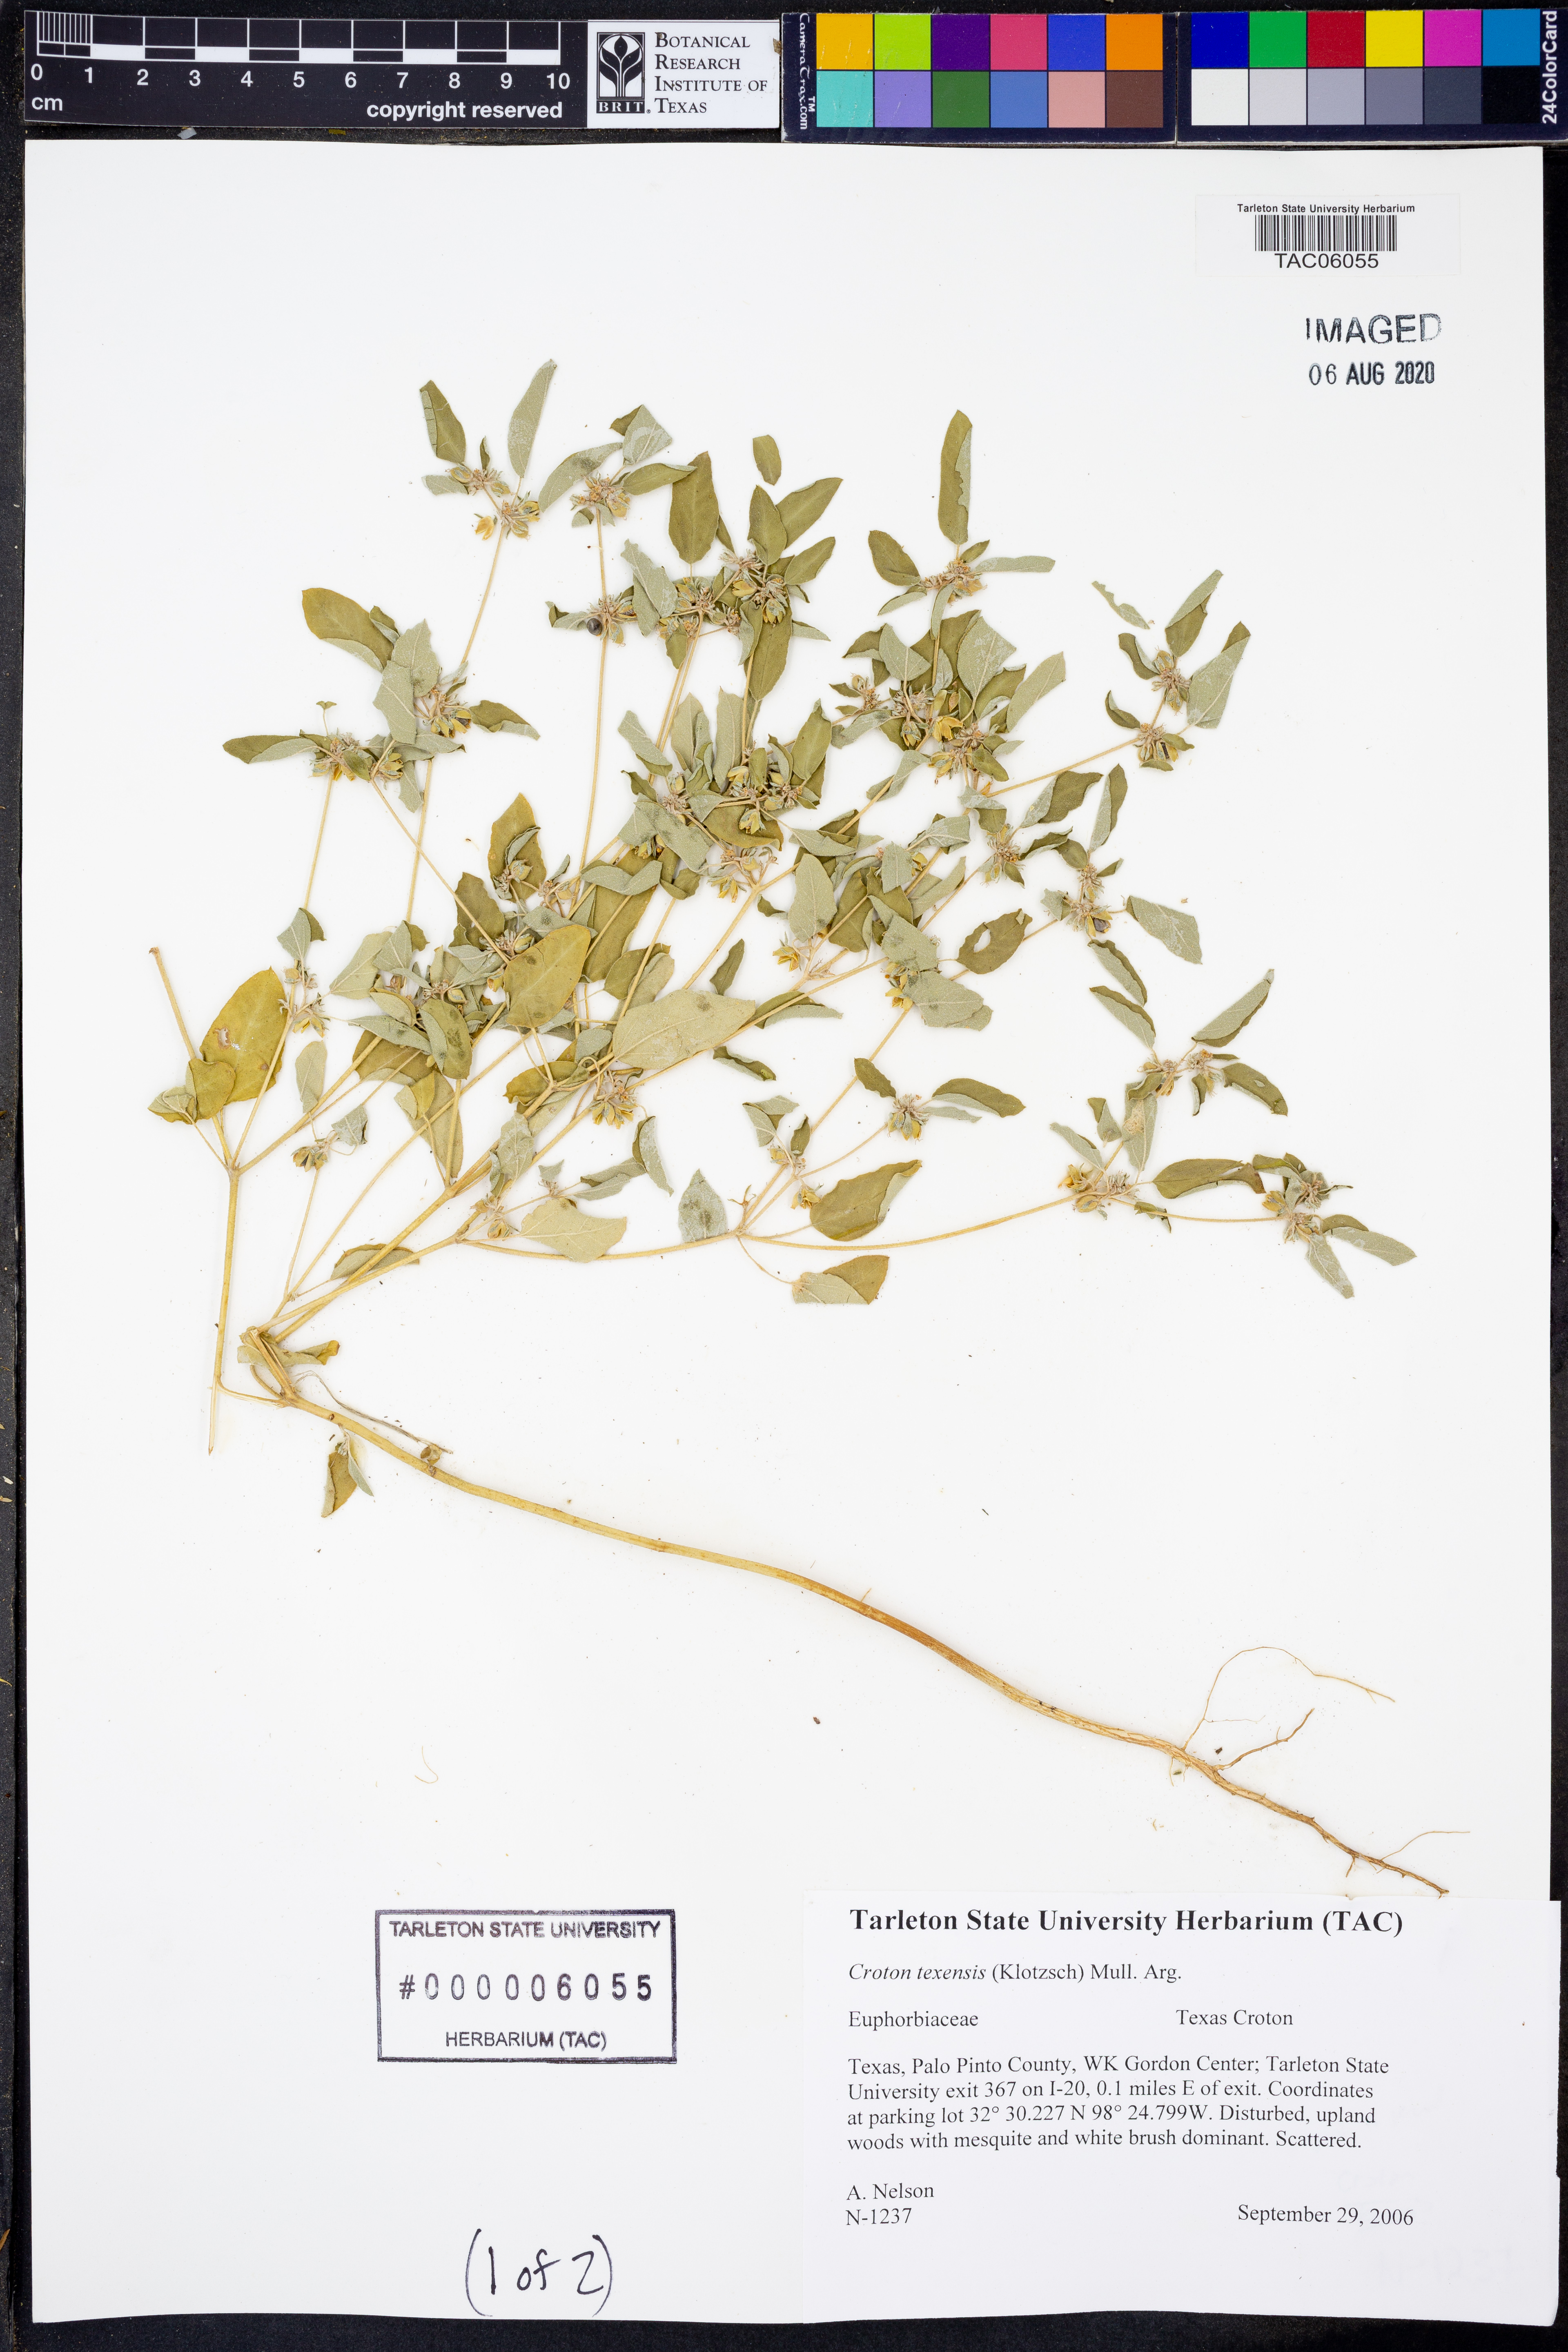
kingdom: Plantae
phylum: Tracheophyta
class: Magnoliopsida
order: Malpighiales
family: Euphorbiaceae
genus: Croton
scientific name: Croton texensis
